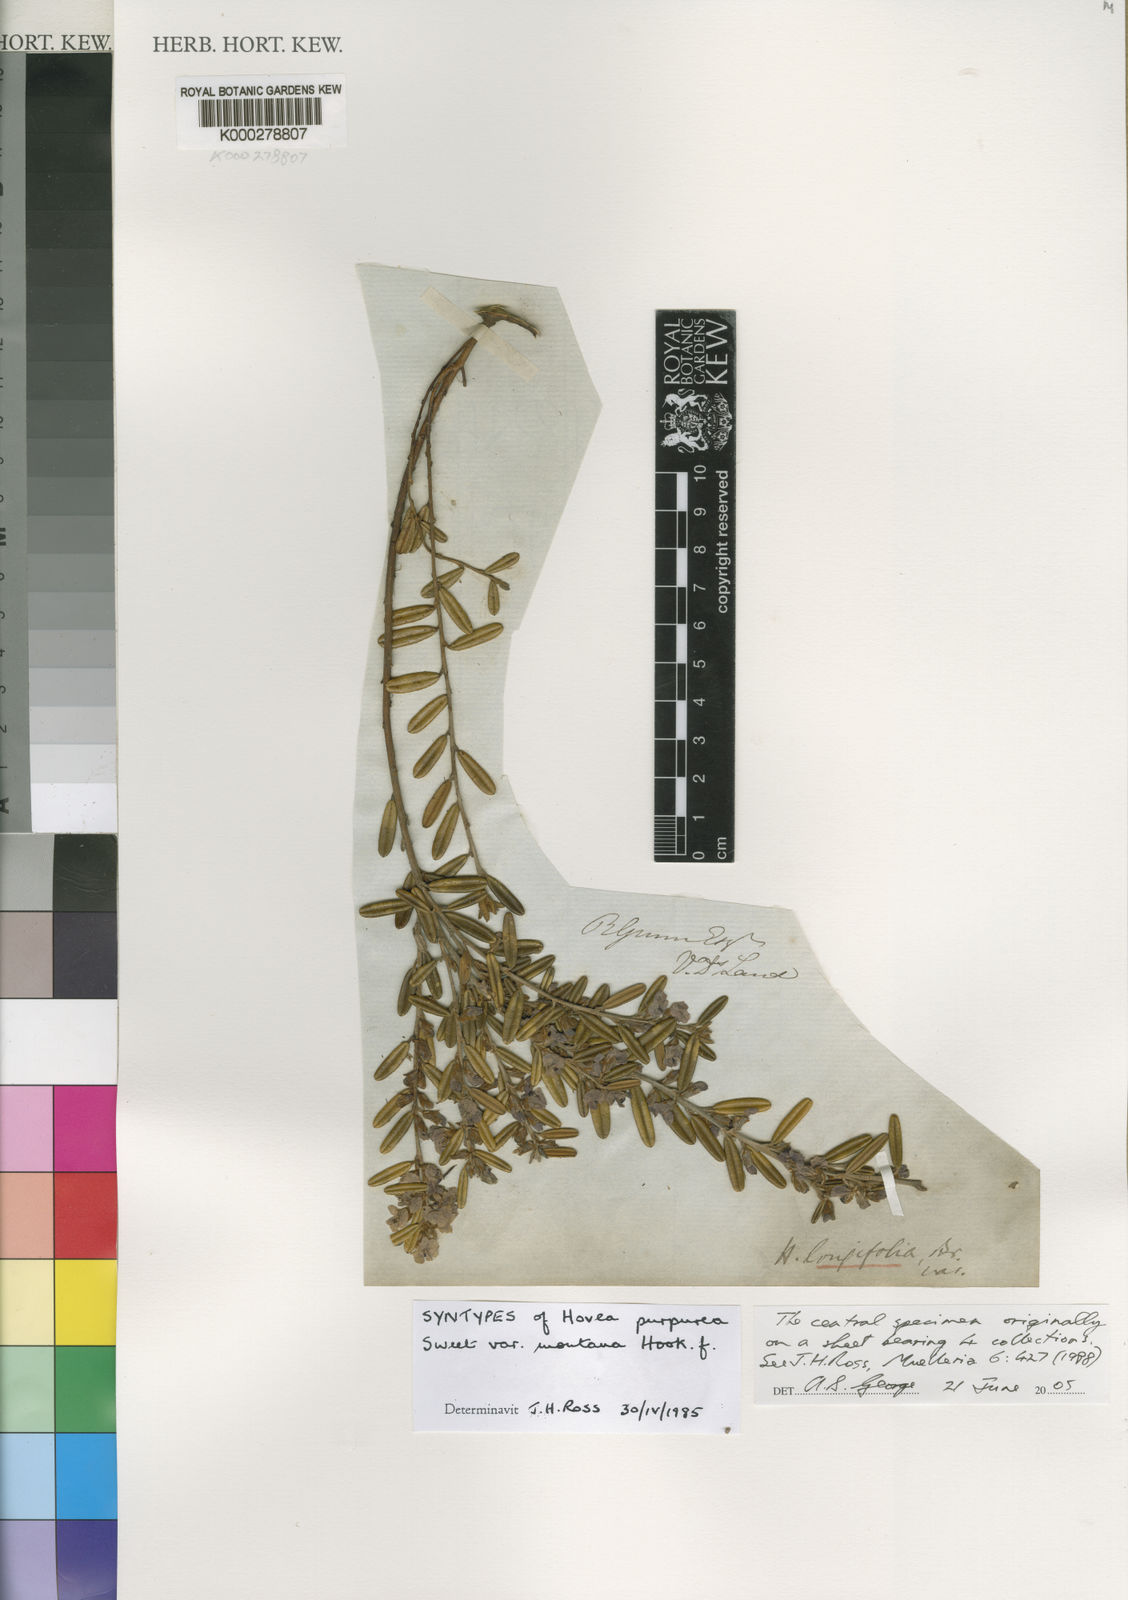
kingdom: Plantae
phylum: Tracheophyta
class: Magnoliopsida
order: Fabales
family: Fabaceae
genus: Hovea
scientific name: Hovea longifolia
